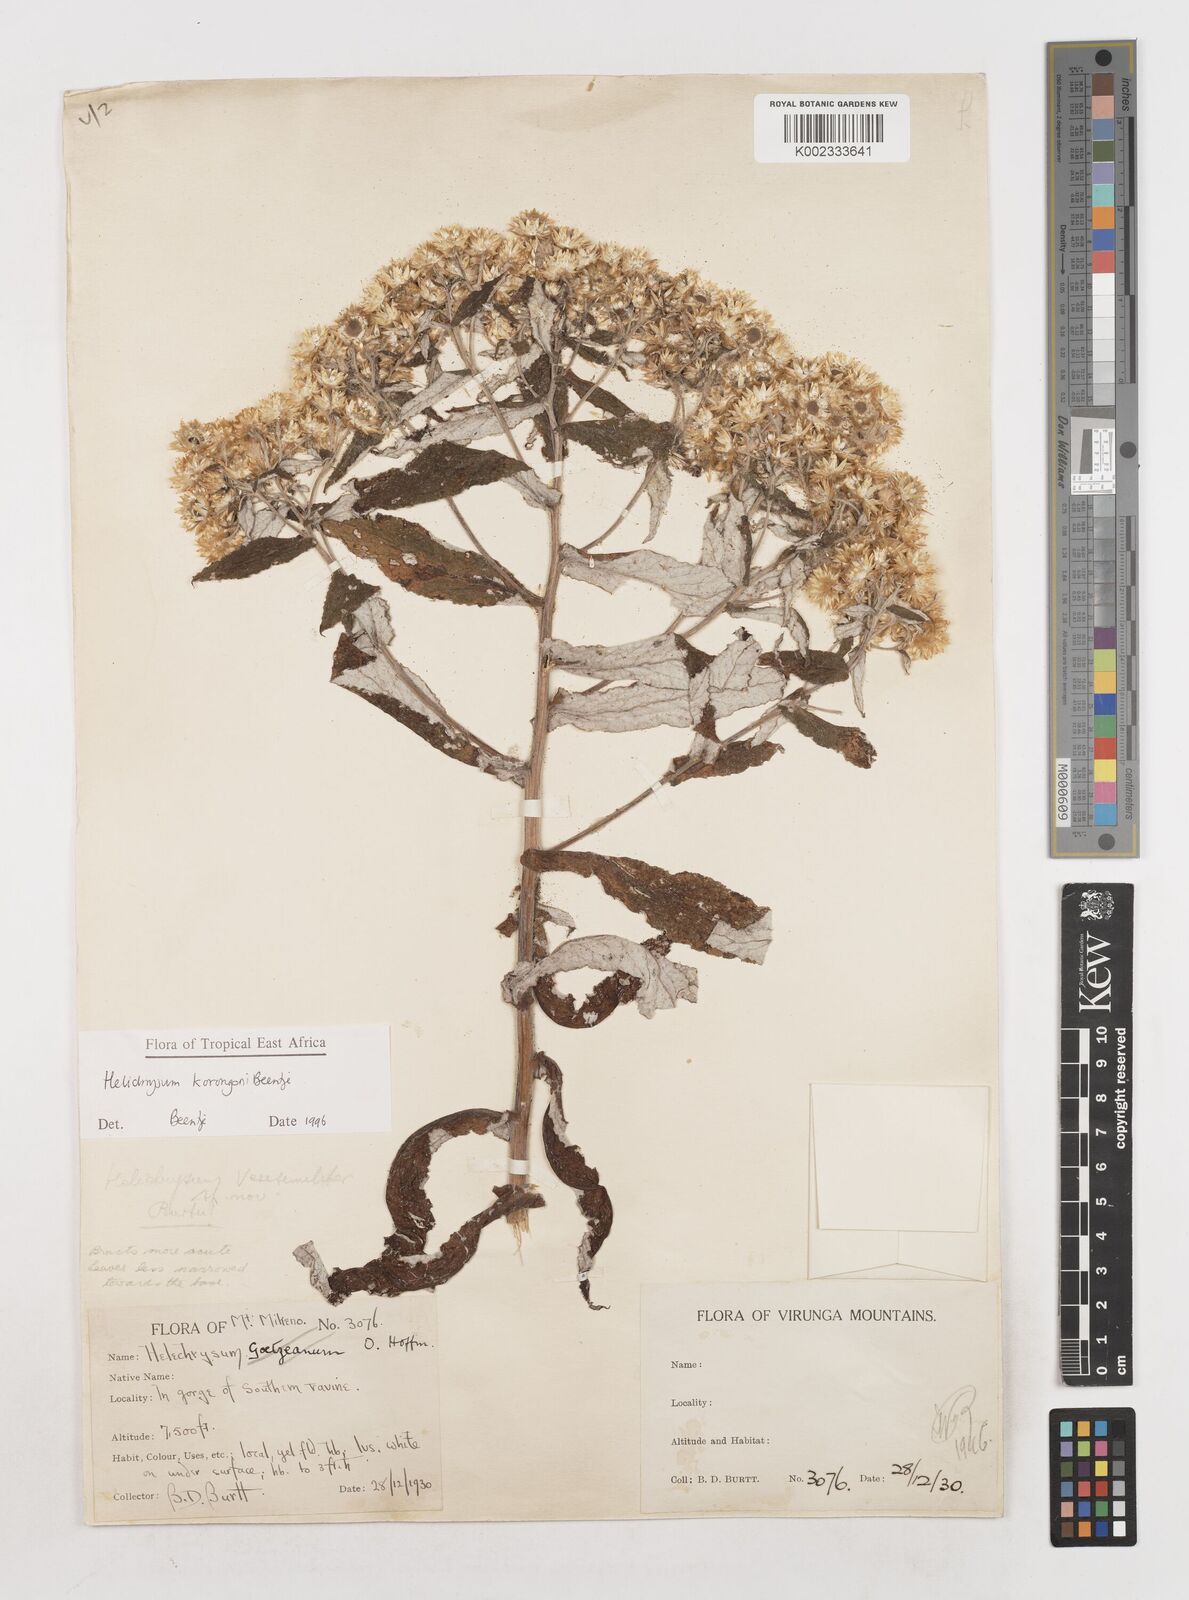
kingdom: Plantae
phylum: Tracheophyta
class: Magnoliopsida
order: Asterales
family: Asteraceae
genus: Helichrysum
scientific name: Helichrysum korongoni
